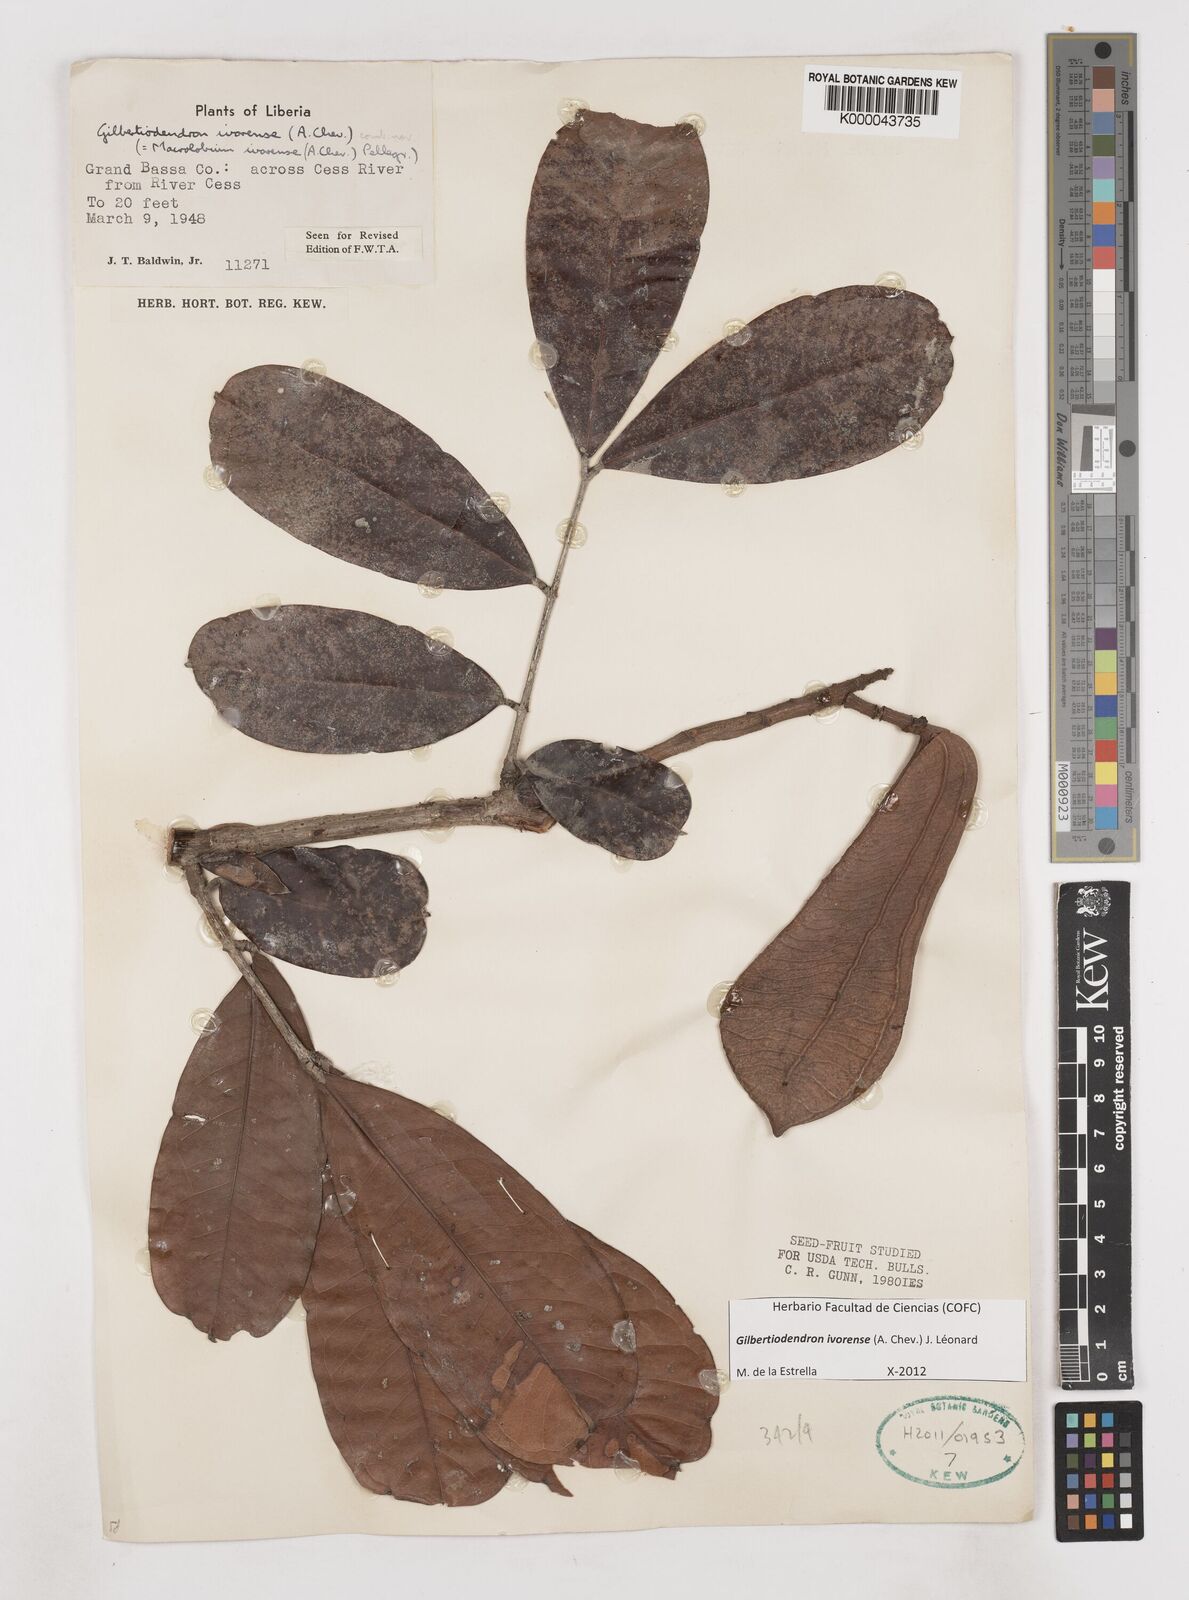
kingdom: Plantae
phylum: Tracheophyta
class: Magnoliopsida
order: Fabales
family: Fabaceae
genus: Gilbertiodendron
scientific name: Gilbertiodendron
